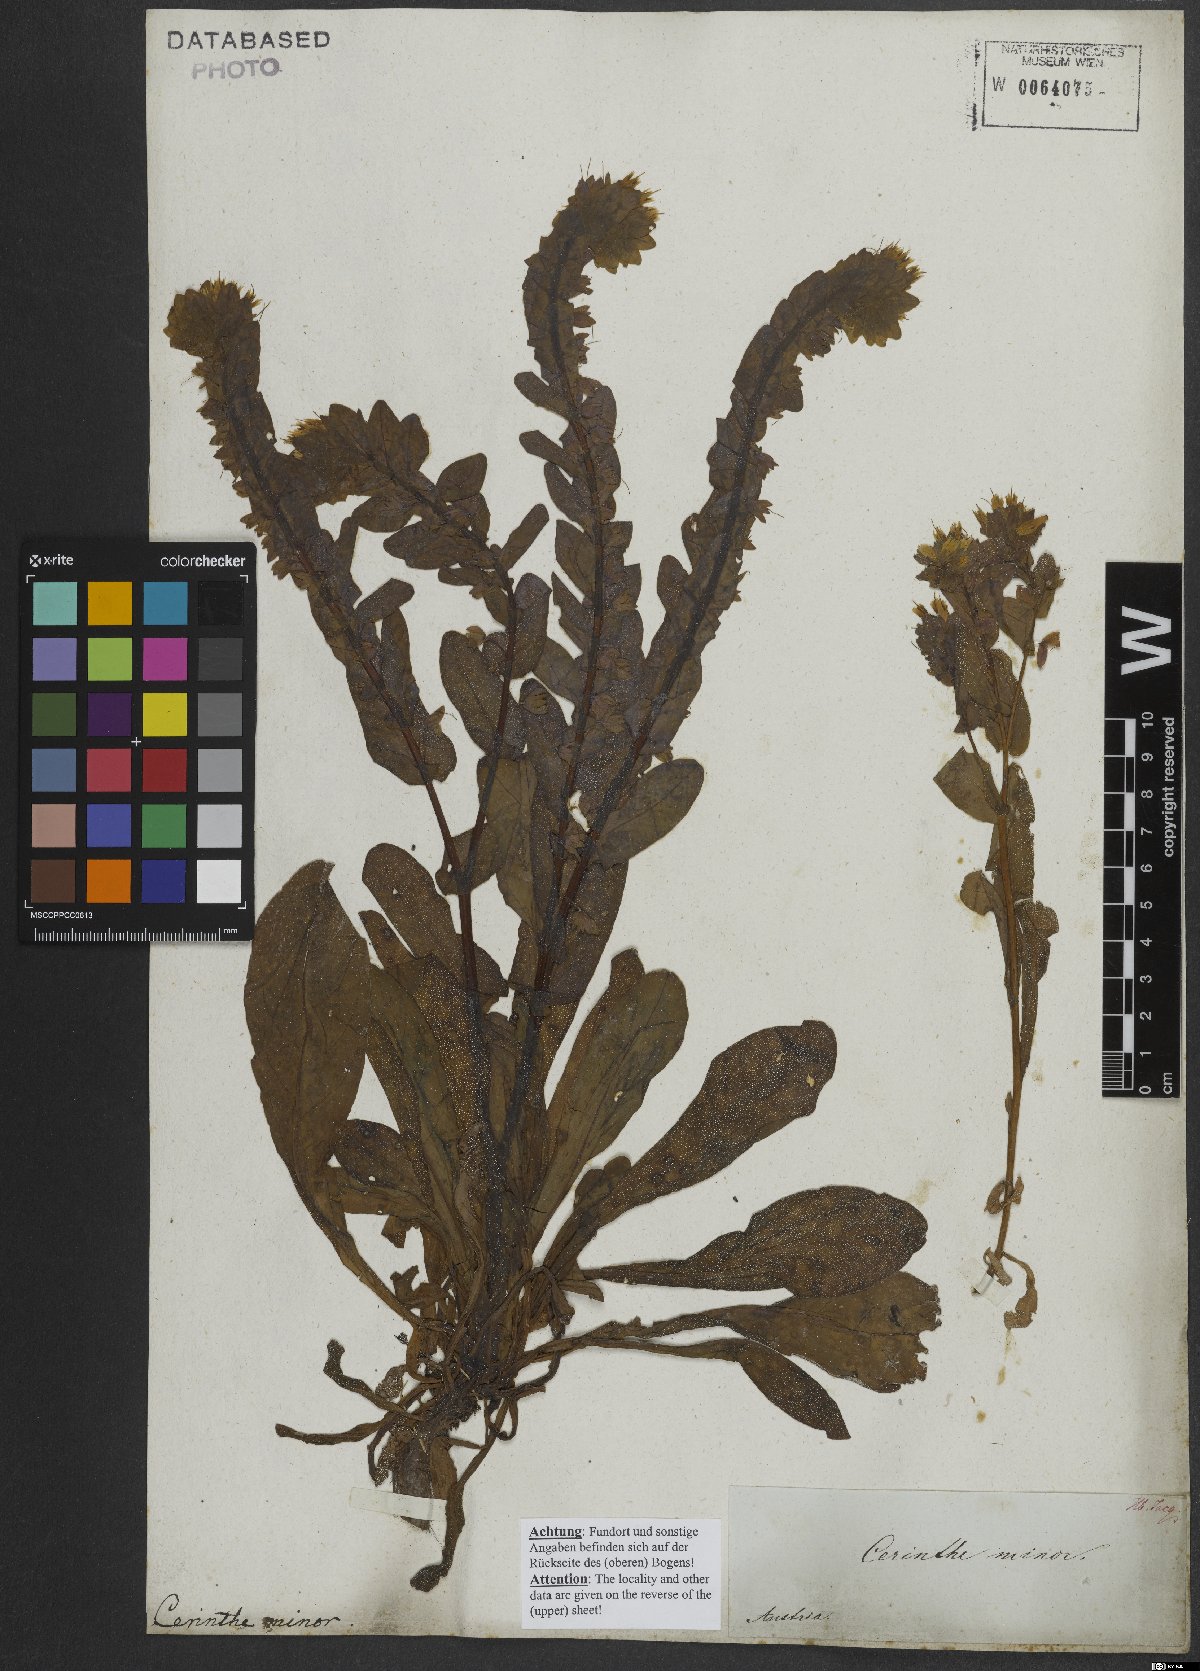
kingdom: Plantae
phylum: Tracheophyta
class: Magnoliopsida
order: Boraginales
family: Boraginaceae
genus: Cerinthe
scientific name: Cerinthe minor
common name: Lesser honeywort
